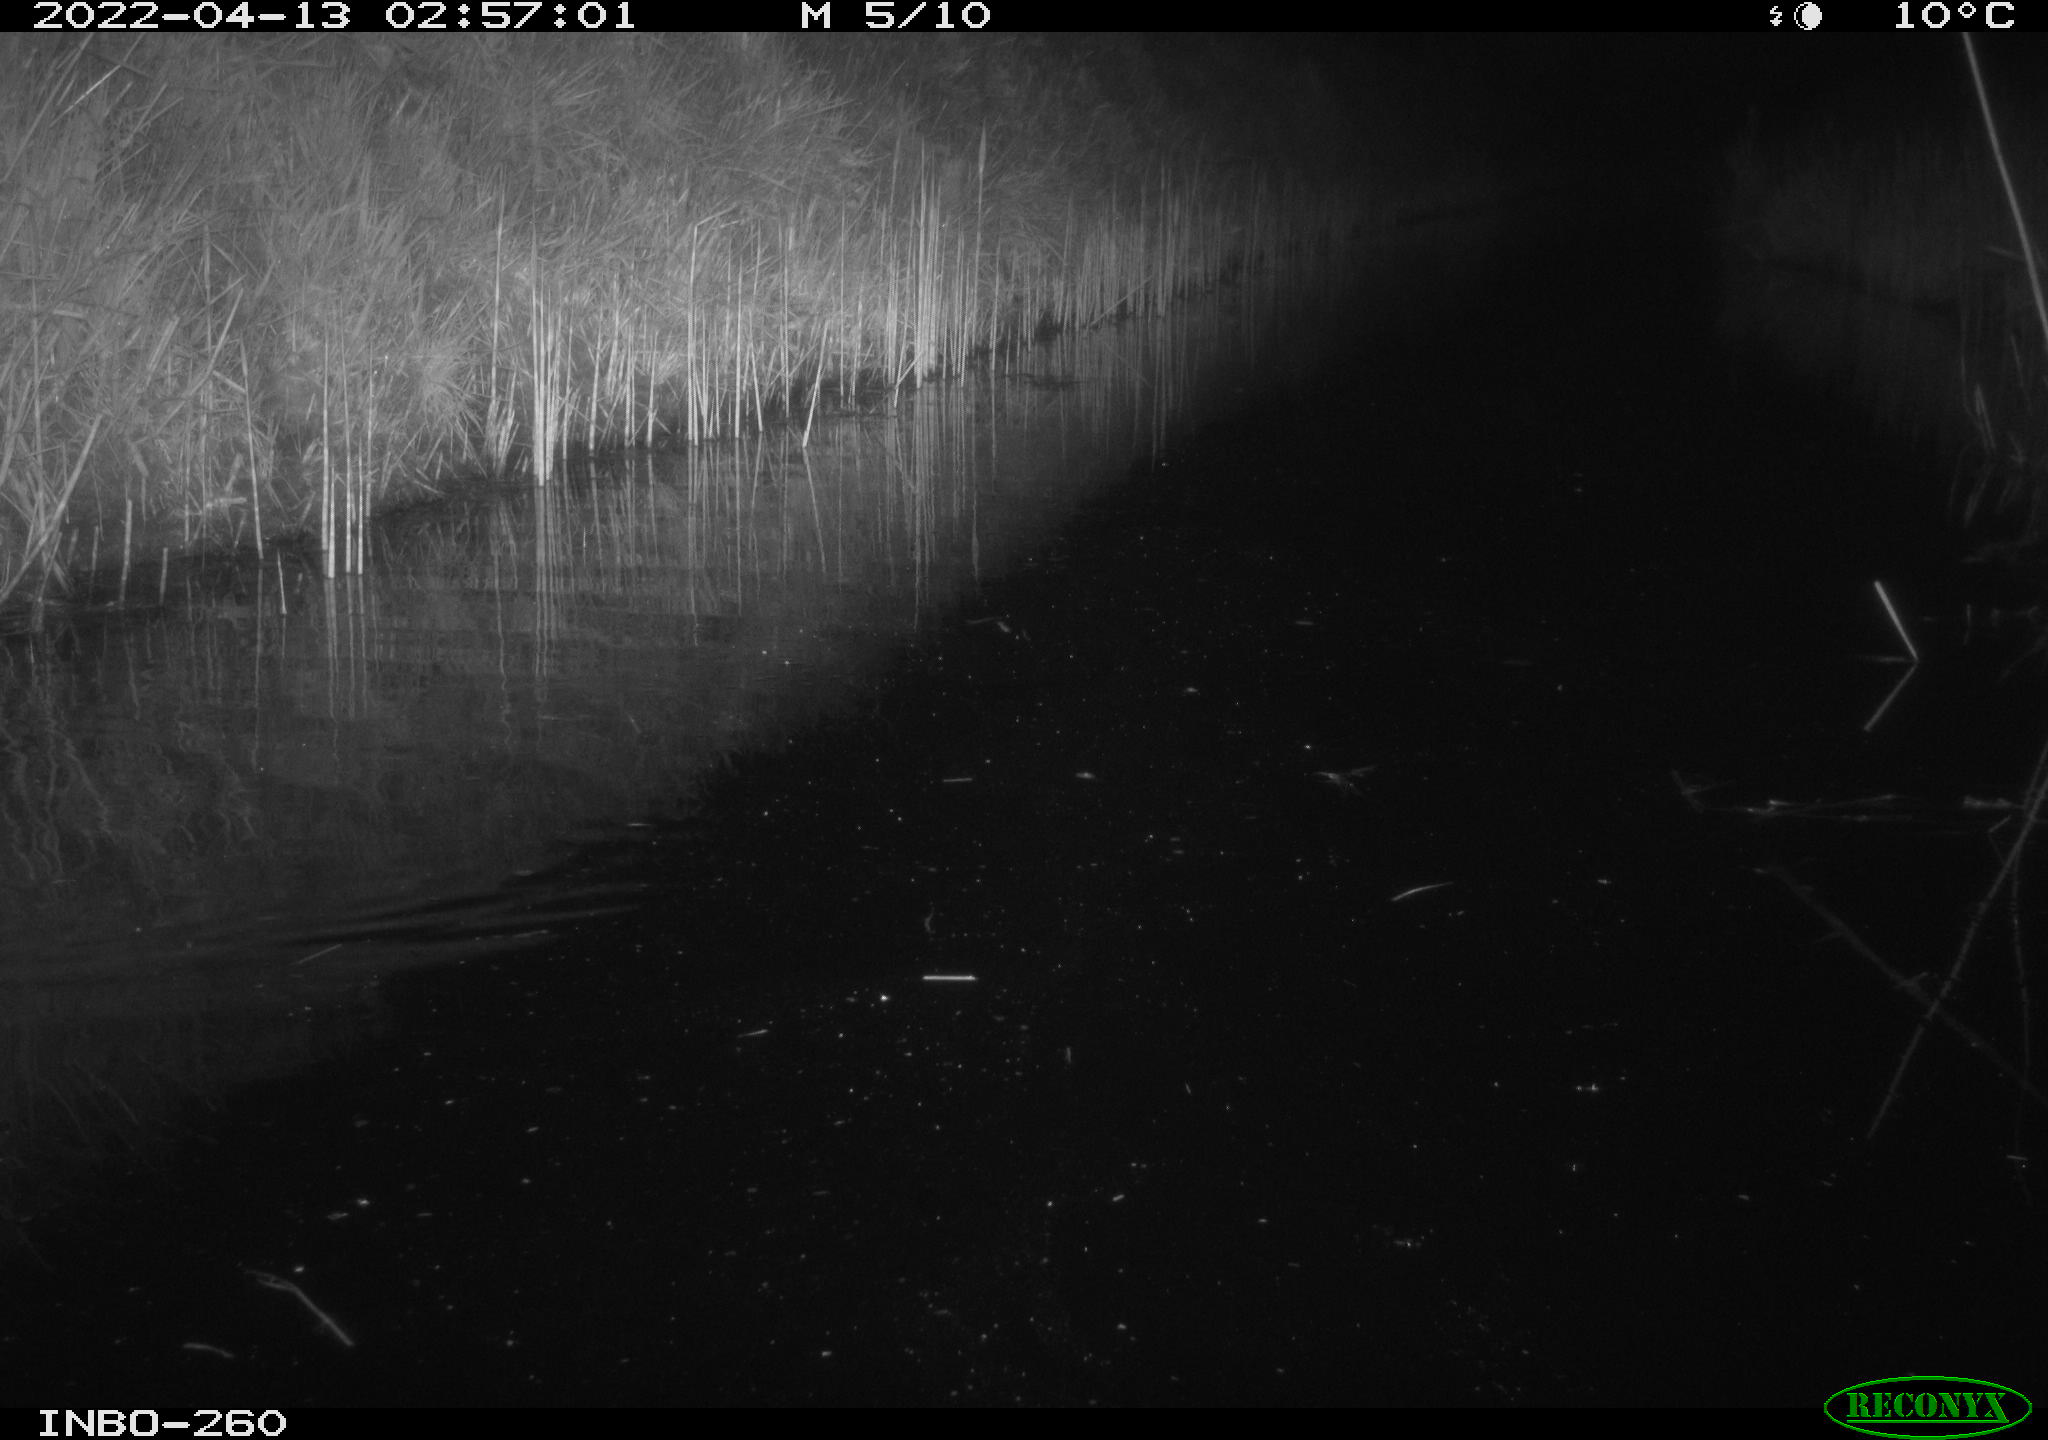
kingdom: Animalia
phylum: Chordata
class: Mammalia
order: Rodentia
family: Muridae
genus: Rattus
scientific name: Rattus norvegicus
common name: Brown rat
